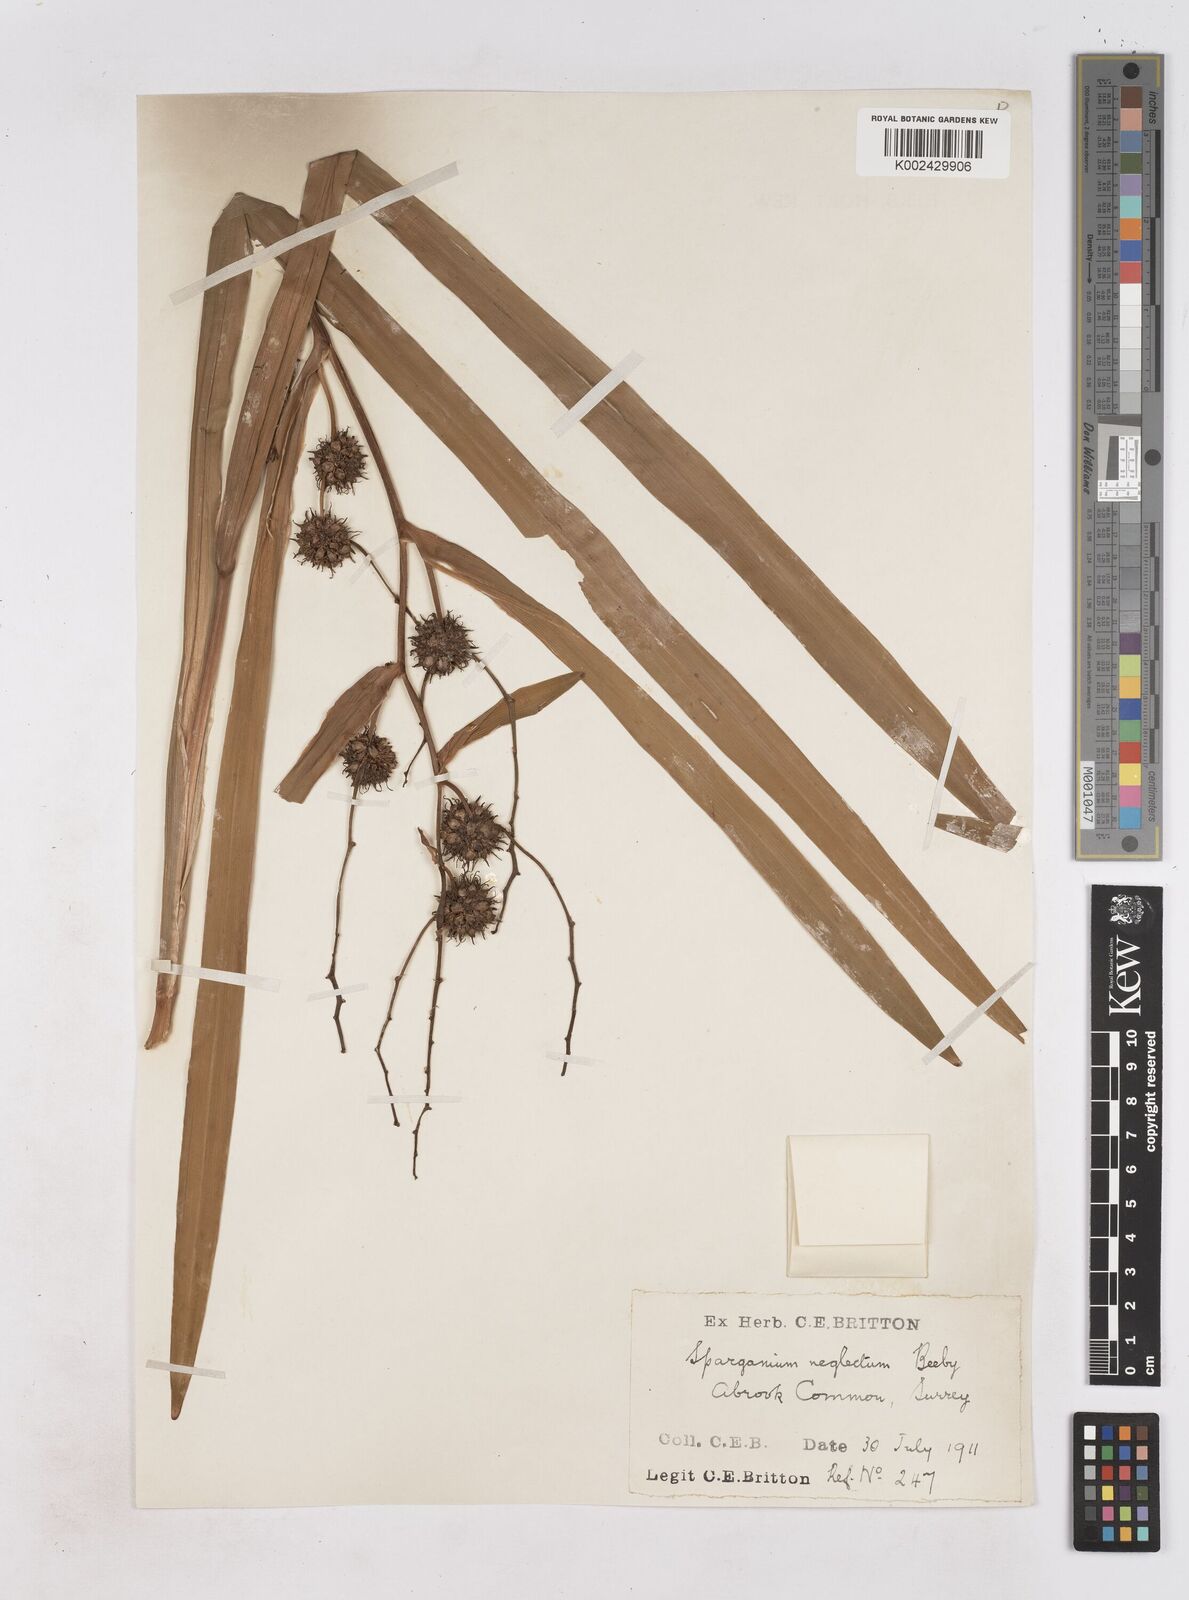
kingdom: Plantae
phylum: Tracheophyta
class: Liliopsida
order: Poales
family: Typhaceae
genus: Sparganium
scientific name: Sparganium erectum
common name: Branched bur-reed
